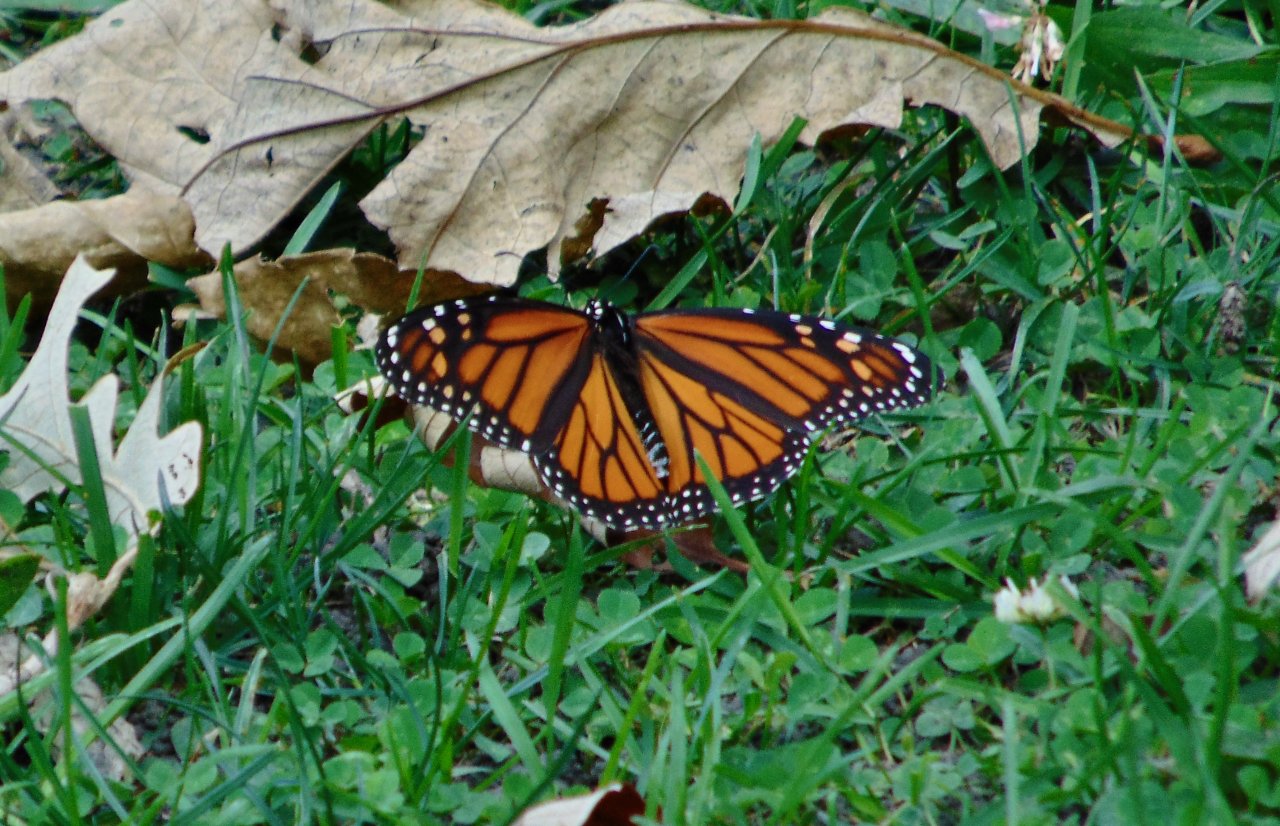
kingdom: Animalia
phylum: Arthropoda
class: Insecta
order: Lepidoptera
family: Nymphalidae
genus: Danaus
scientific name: Danaus plexippus
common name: Monarch
